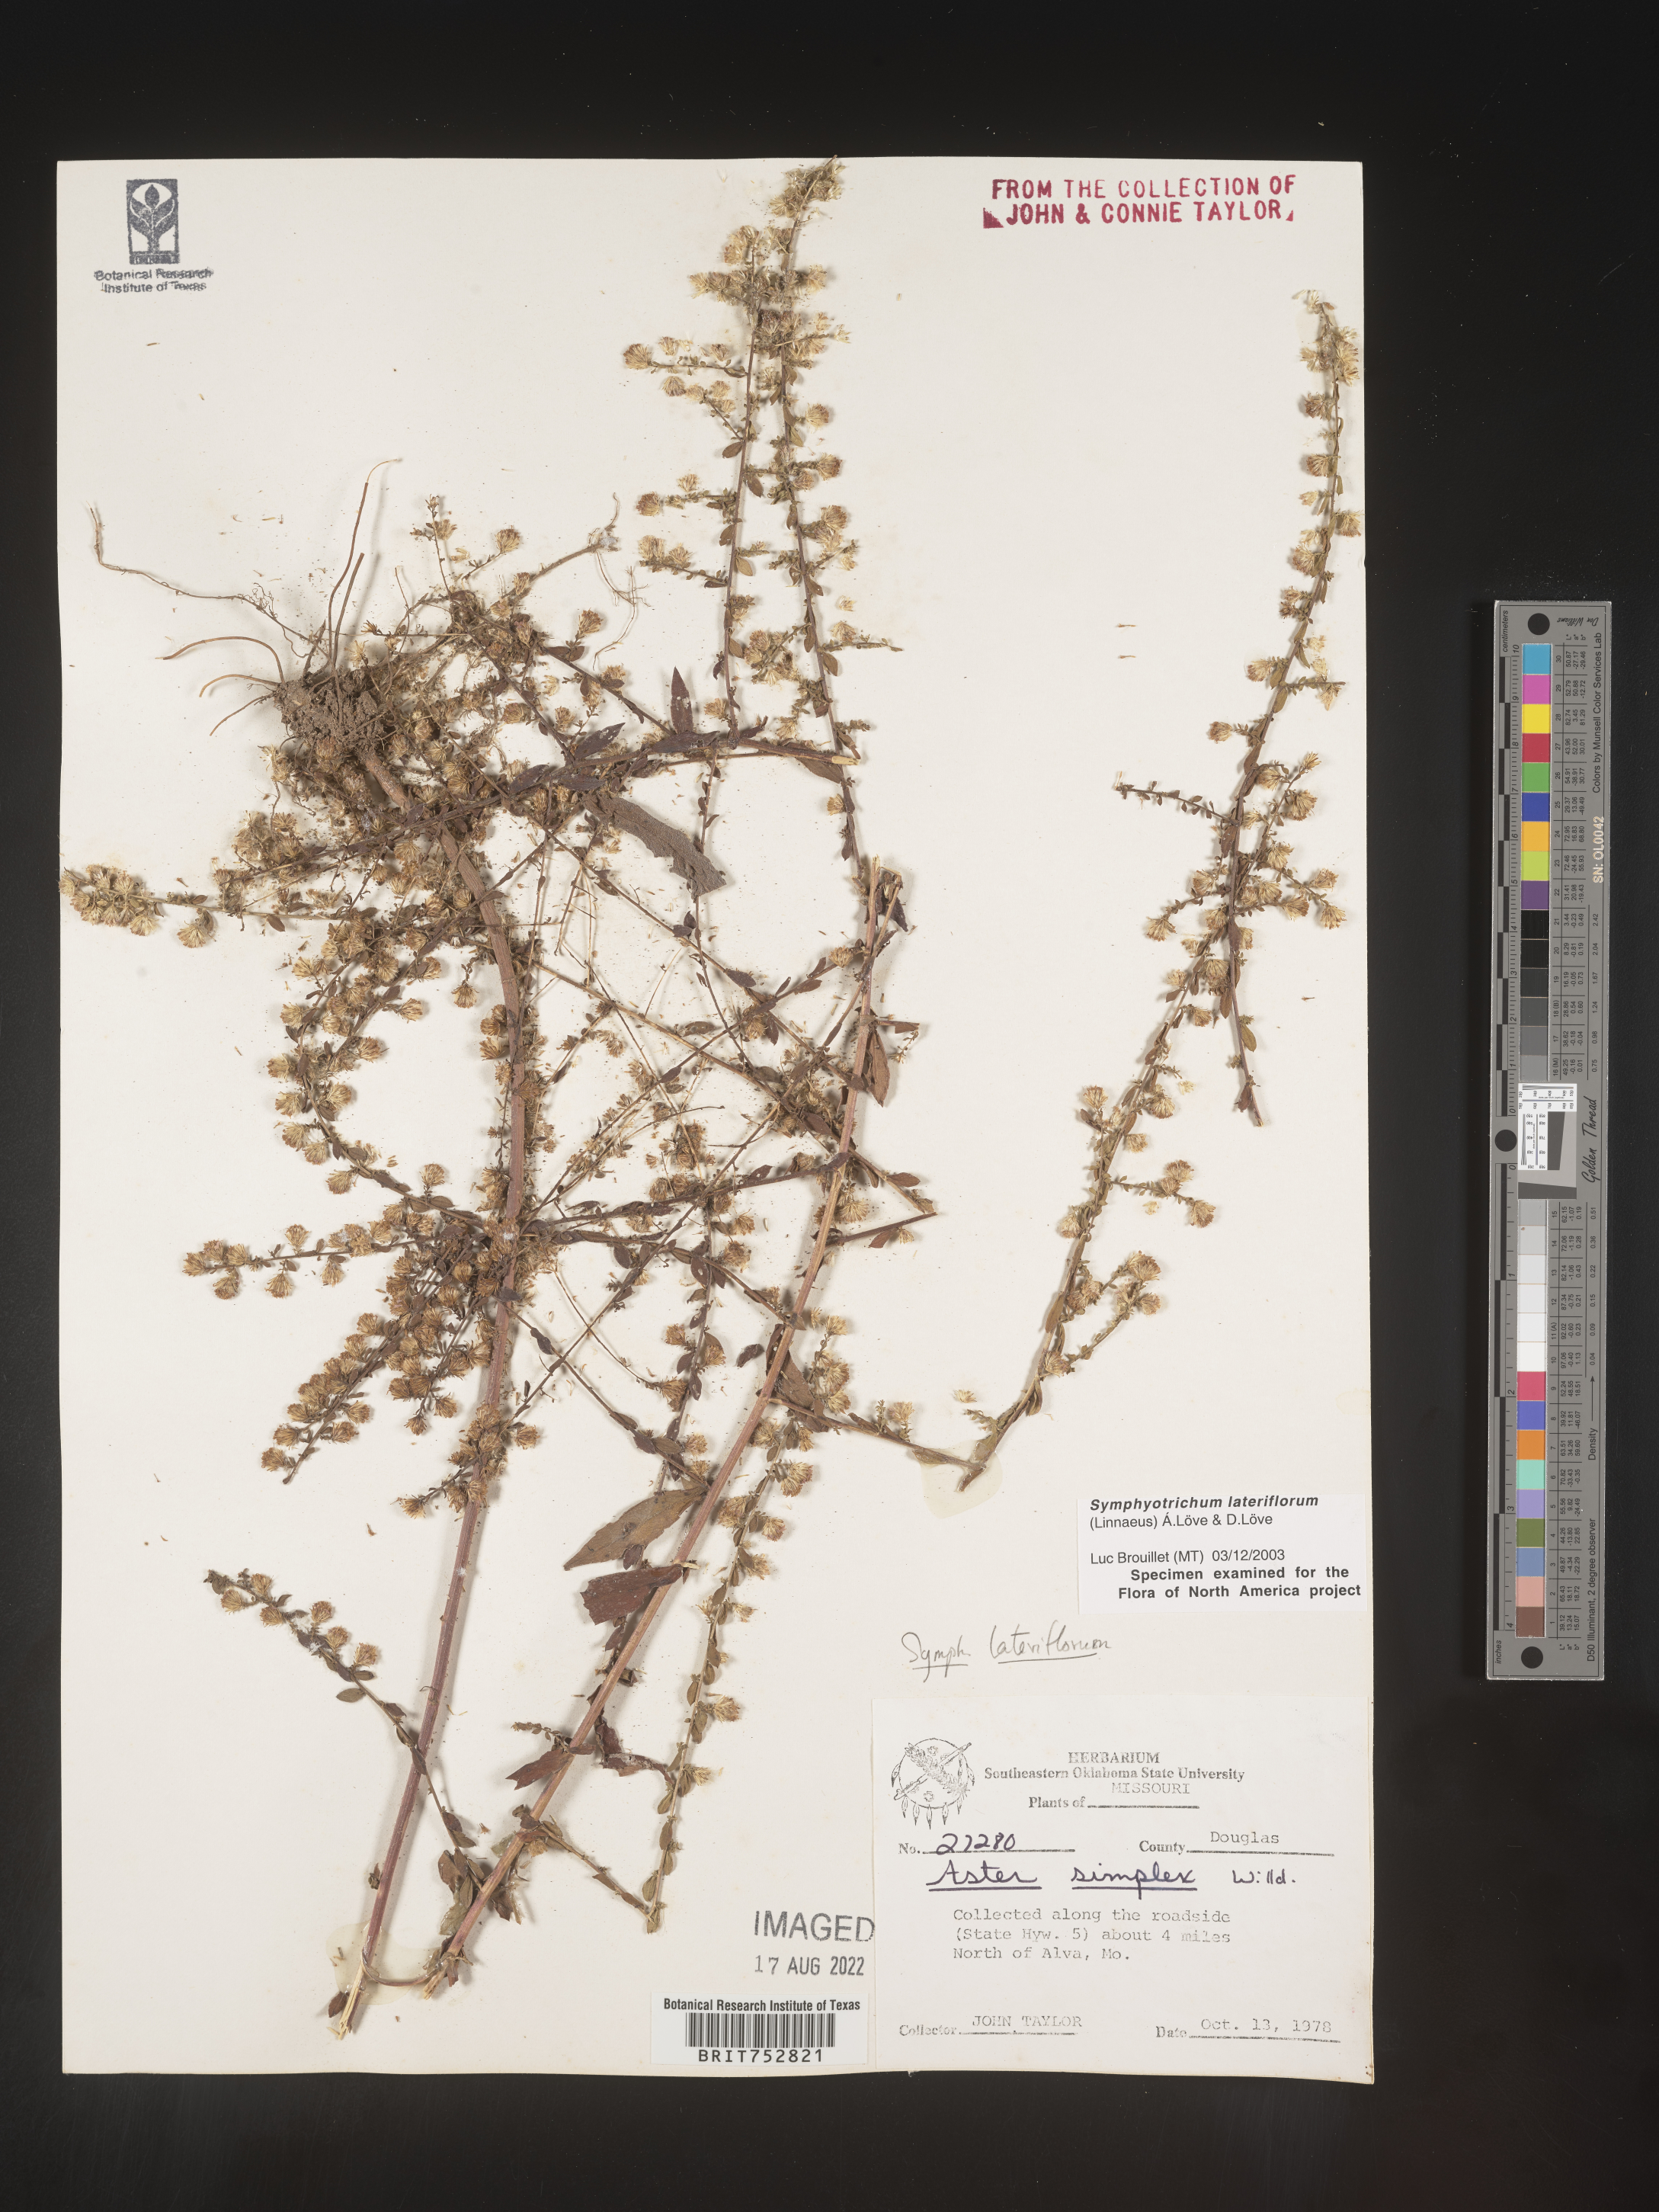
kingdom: Plantae
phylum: Tracheophyta
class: Magnoliopsida
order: Asterales
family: Asteraceae
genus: Symphyotrichum
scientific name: Symphyotrichum lateriflorum
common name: Calico aster
